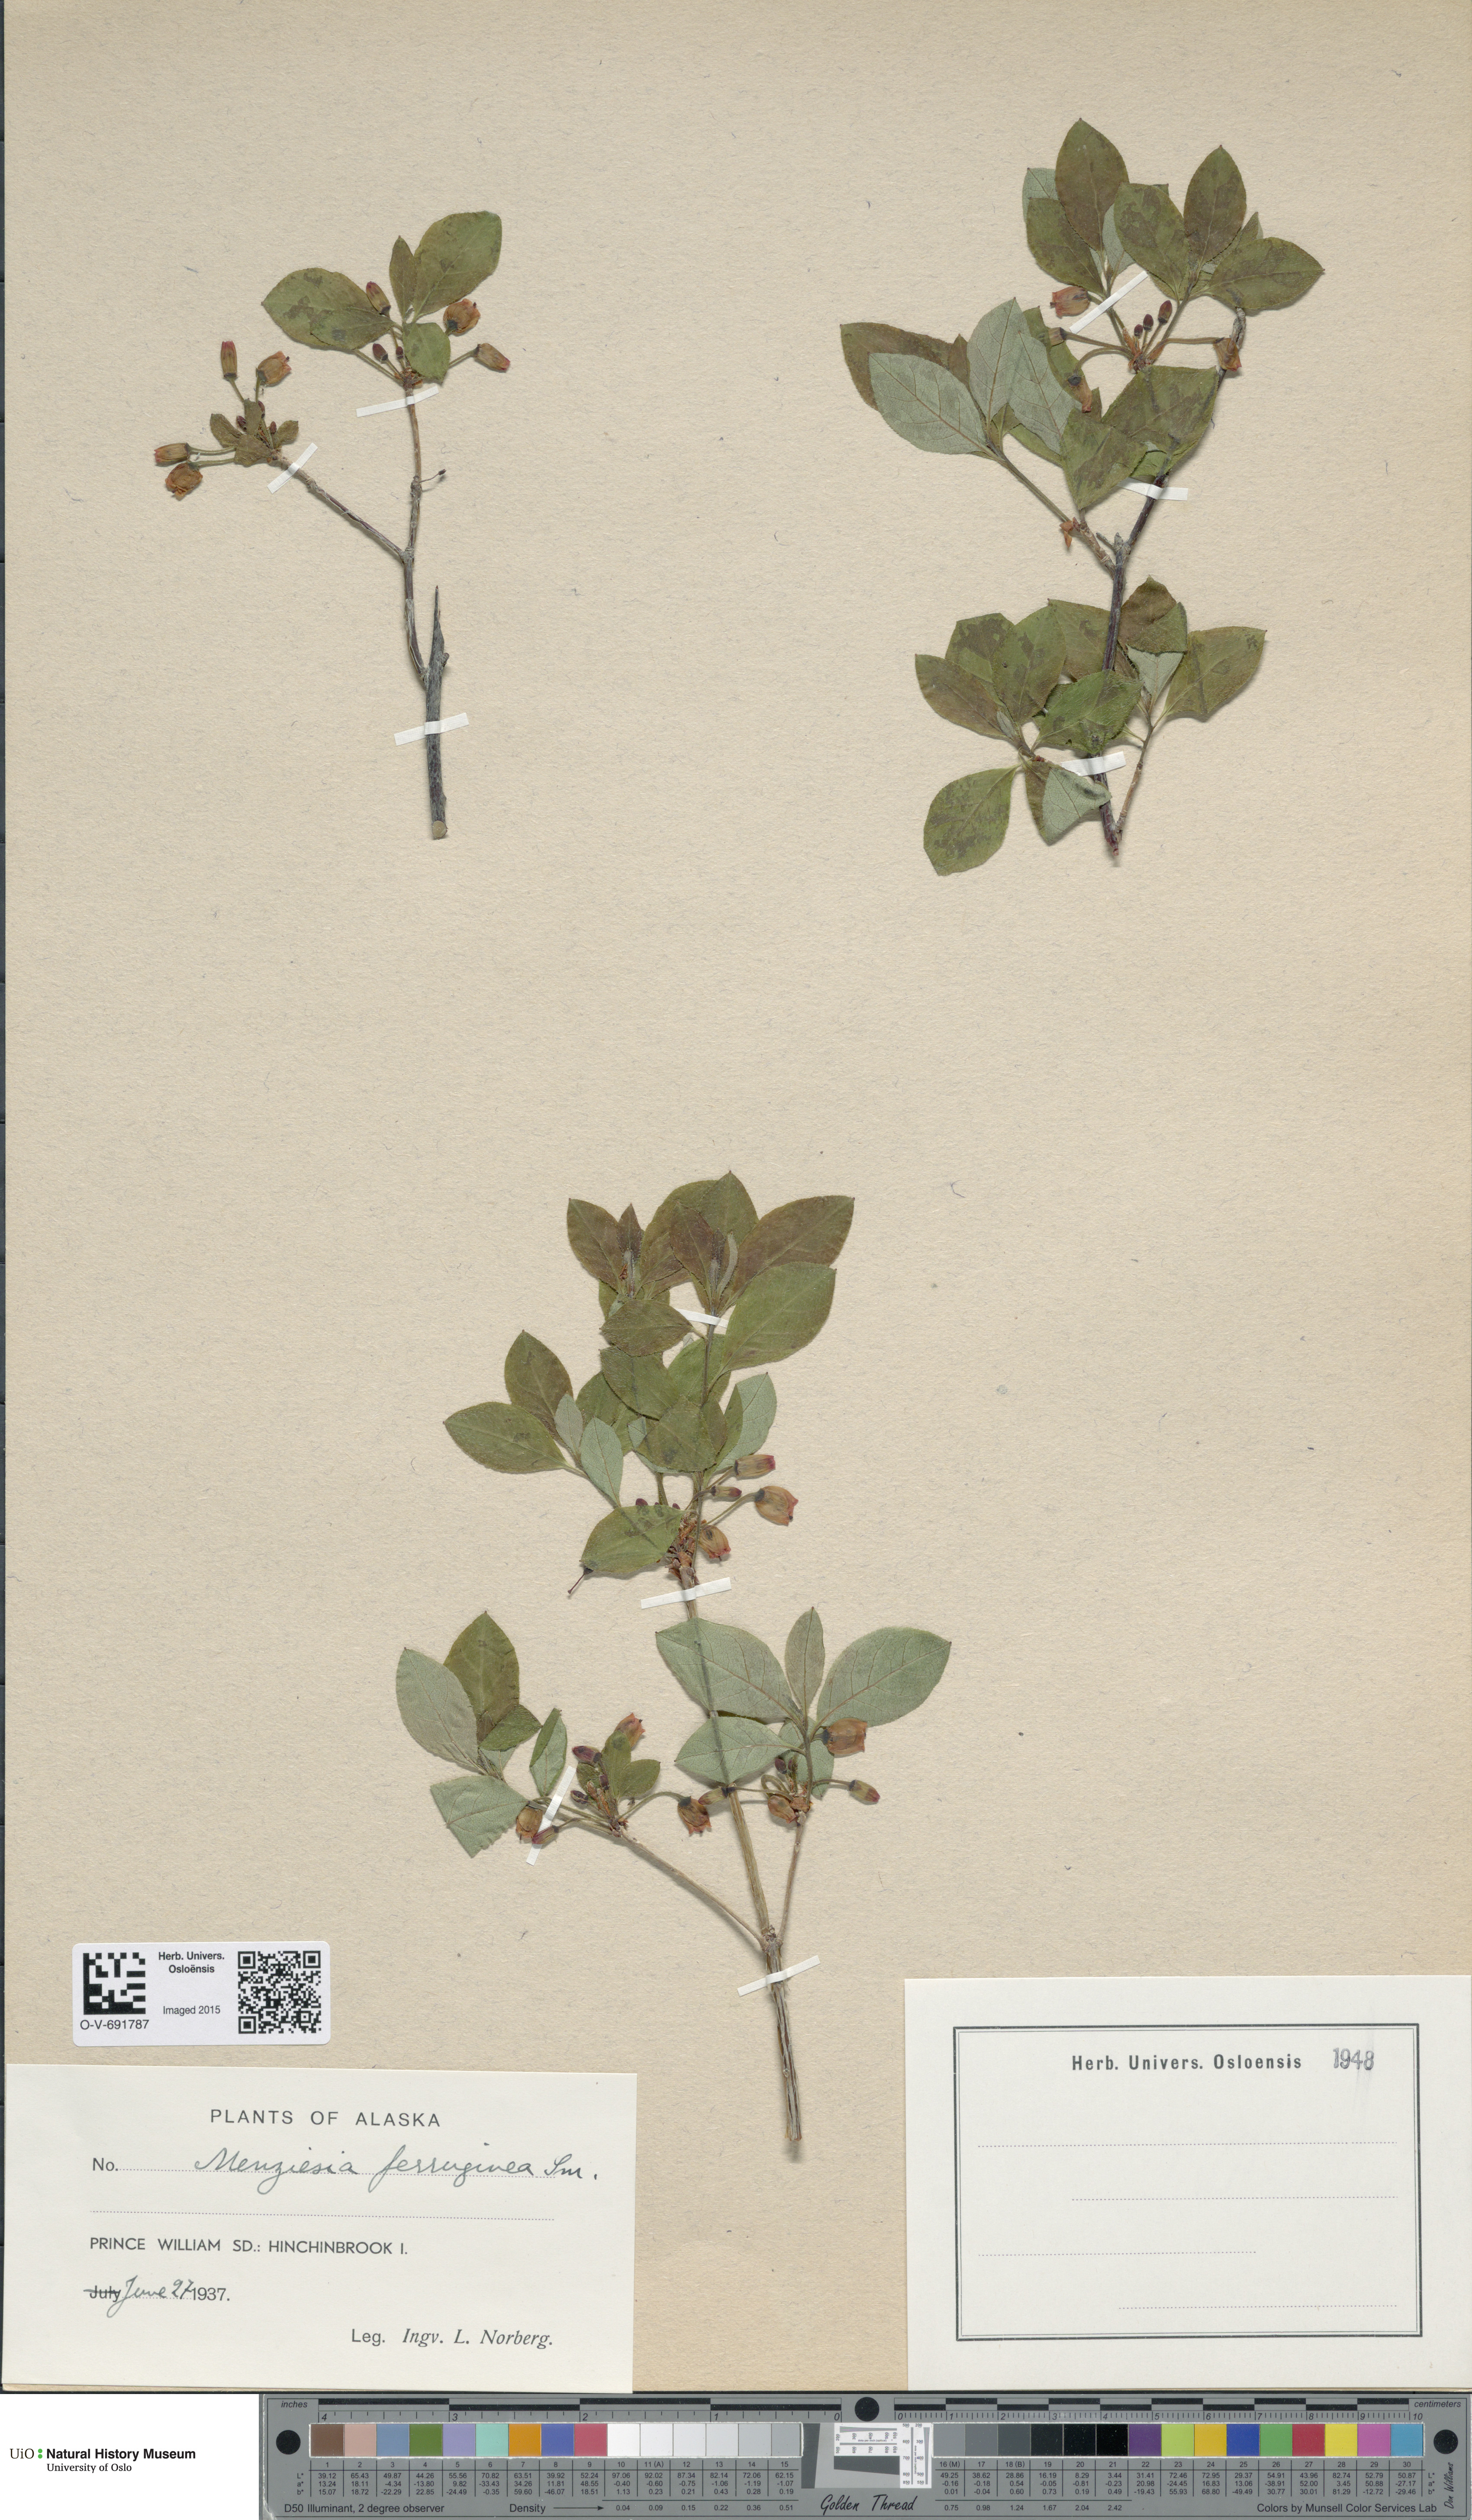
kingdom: Plantae
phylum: Tracheophyta
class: Magnoliopsida
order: Ericales
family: Ericaceae
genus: Rhododendron
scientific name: Rhododendron menziesii
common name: Pacific menziesia
